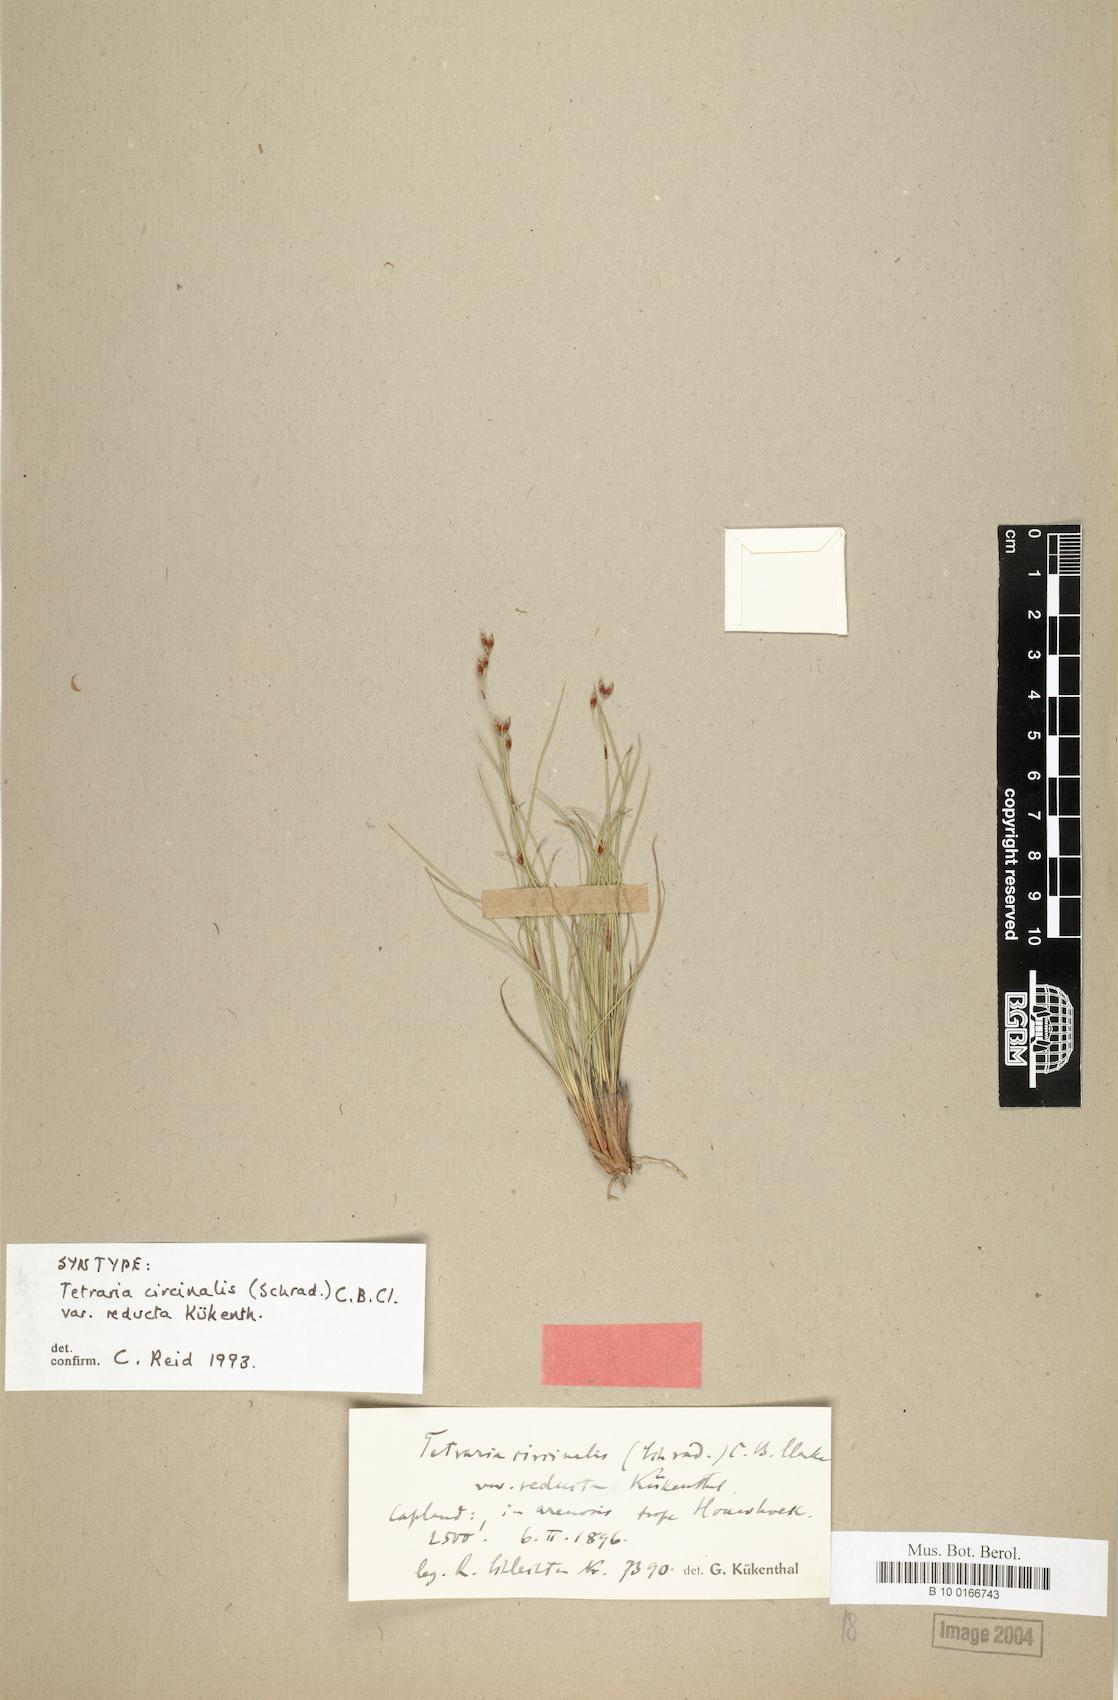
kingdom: Plantae
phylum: Tracheophyta
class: Liliopsida
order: Poales
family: Cyperaceae
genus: Tetraria
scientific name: Tetraria microstachys
